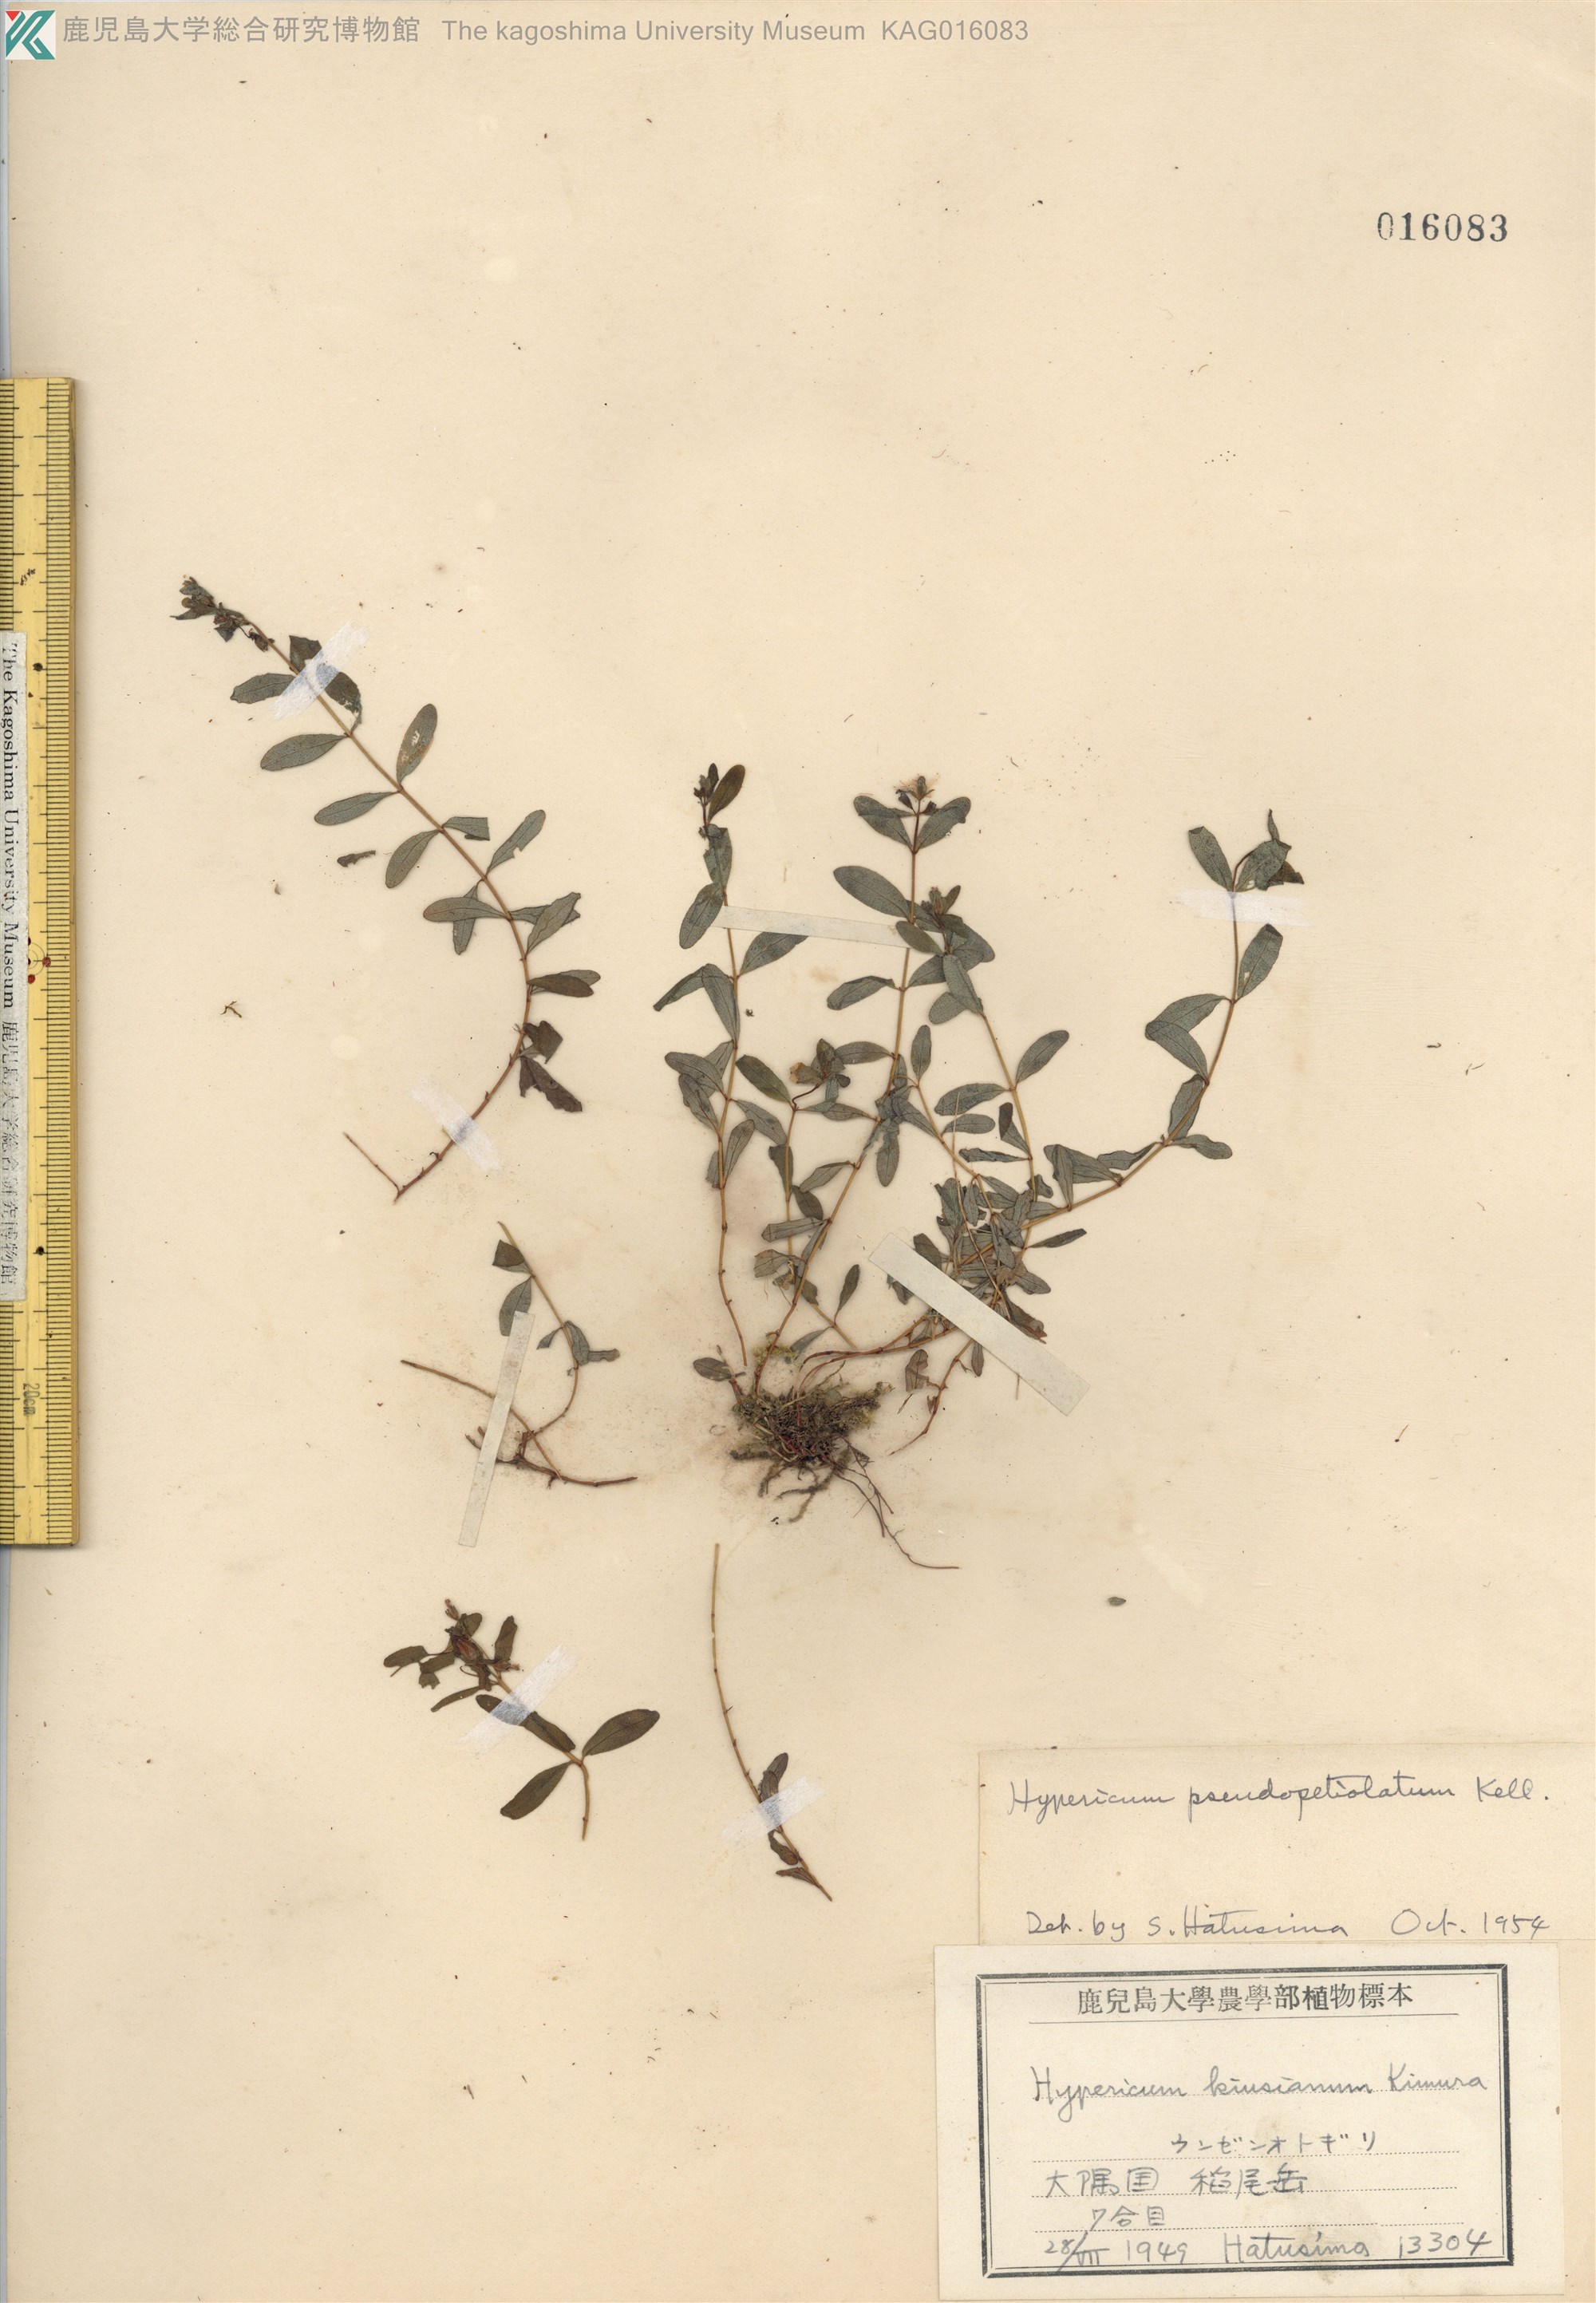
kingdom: Plantae
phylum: Tracheophyta
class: Magnoliopsida
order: Malpighiales
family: Hypericaceae
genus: Hypericum
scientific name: Hypericum pseudopetiolatum
